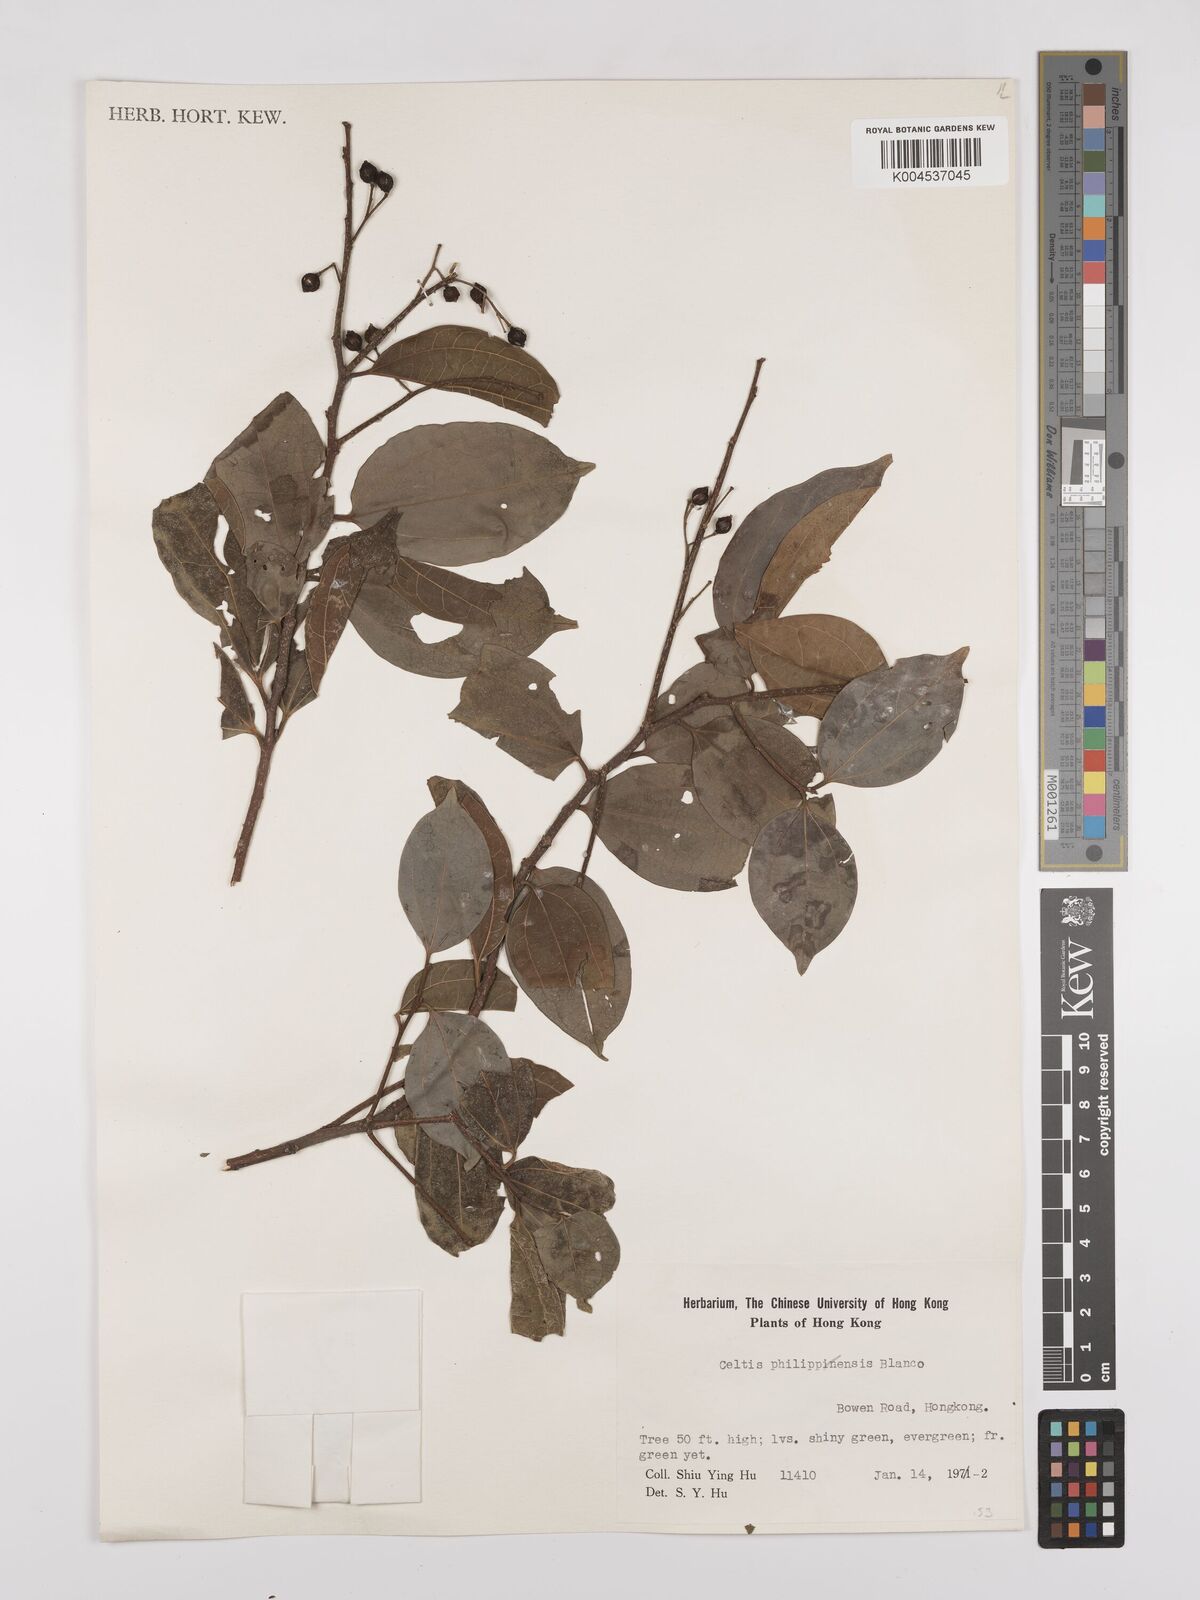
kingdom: Plantae
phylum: Tracheophyta
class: Magnoliopsida
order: Rosales
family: Cannabaceae
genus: Celtis
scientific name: Celtis timorensis
